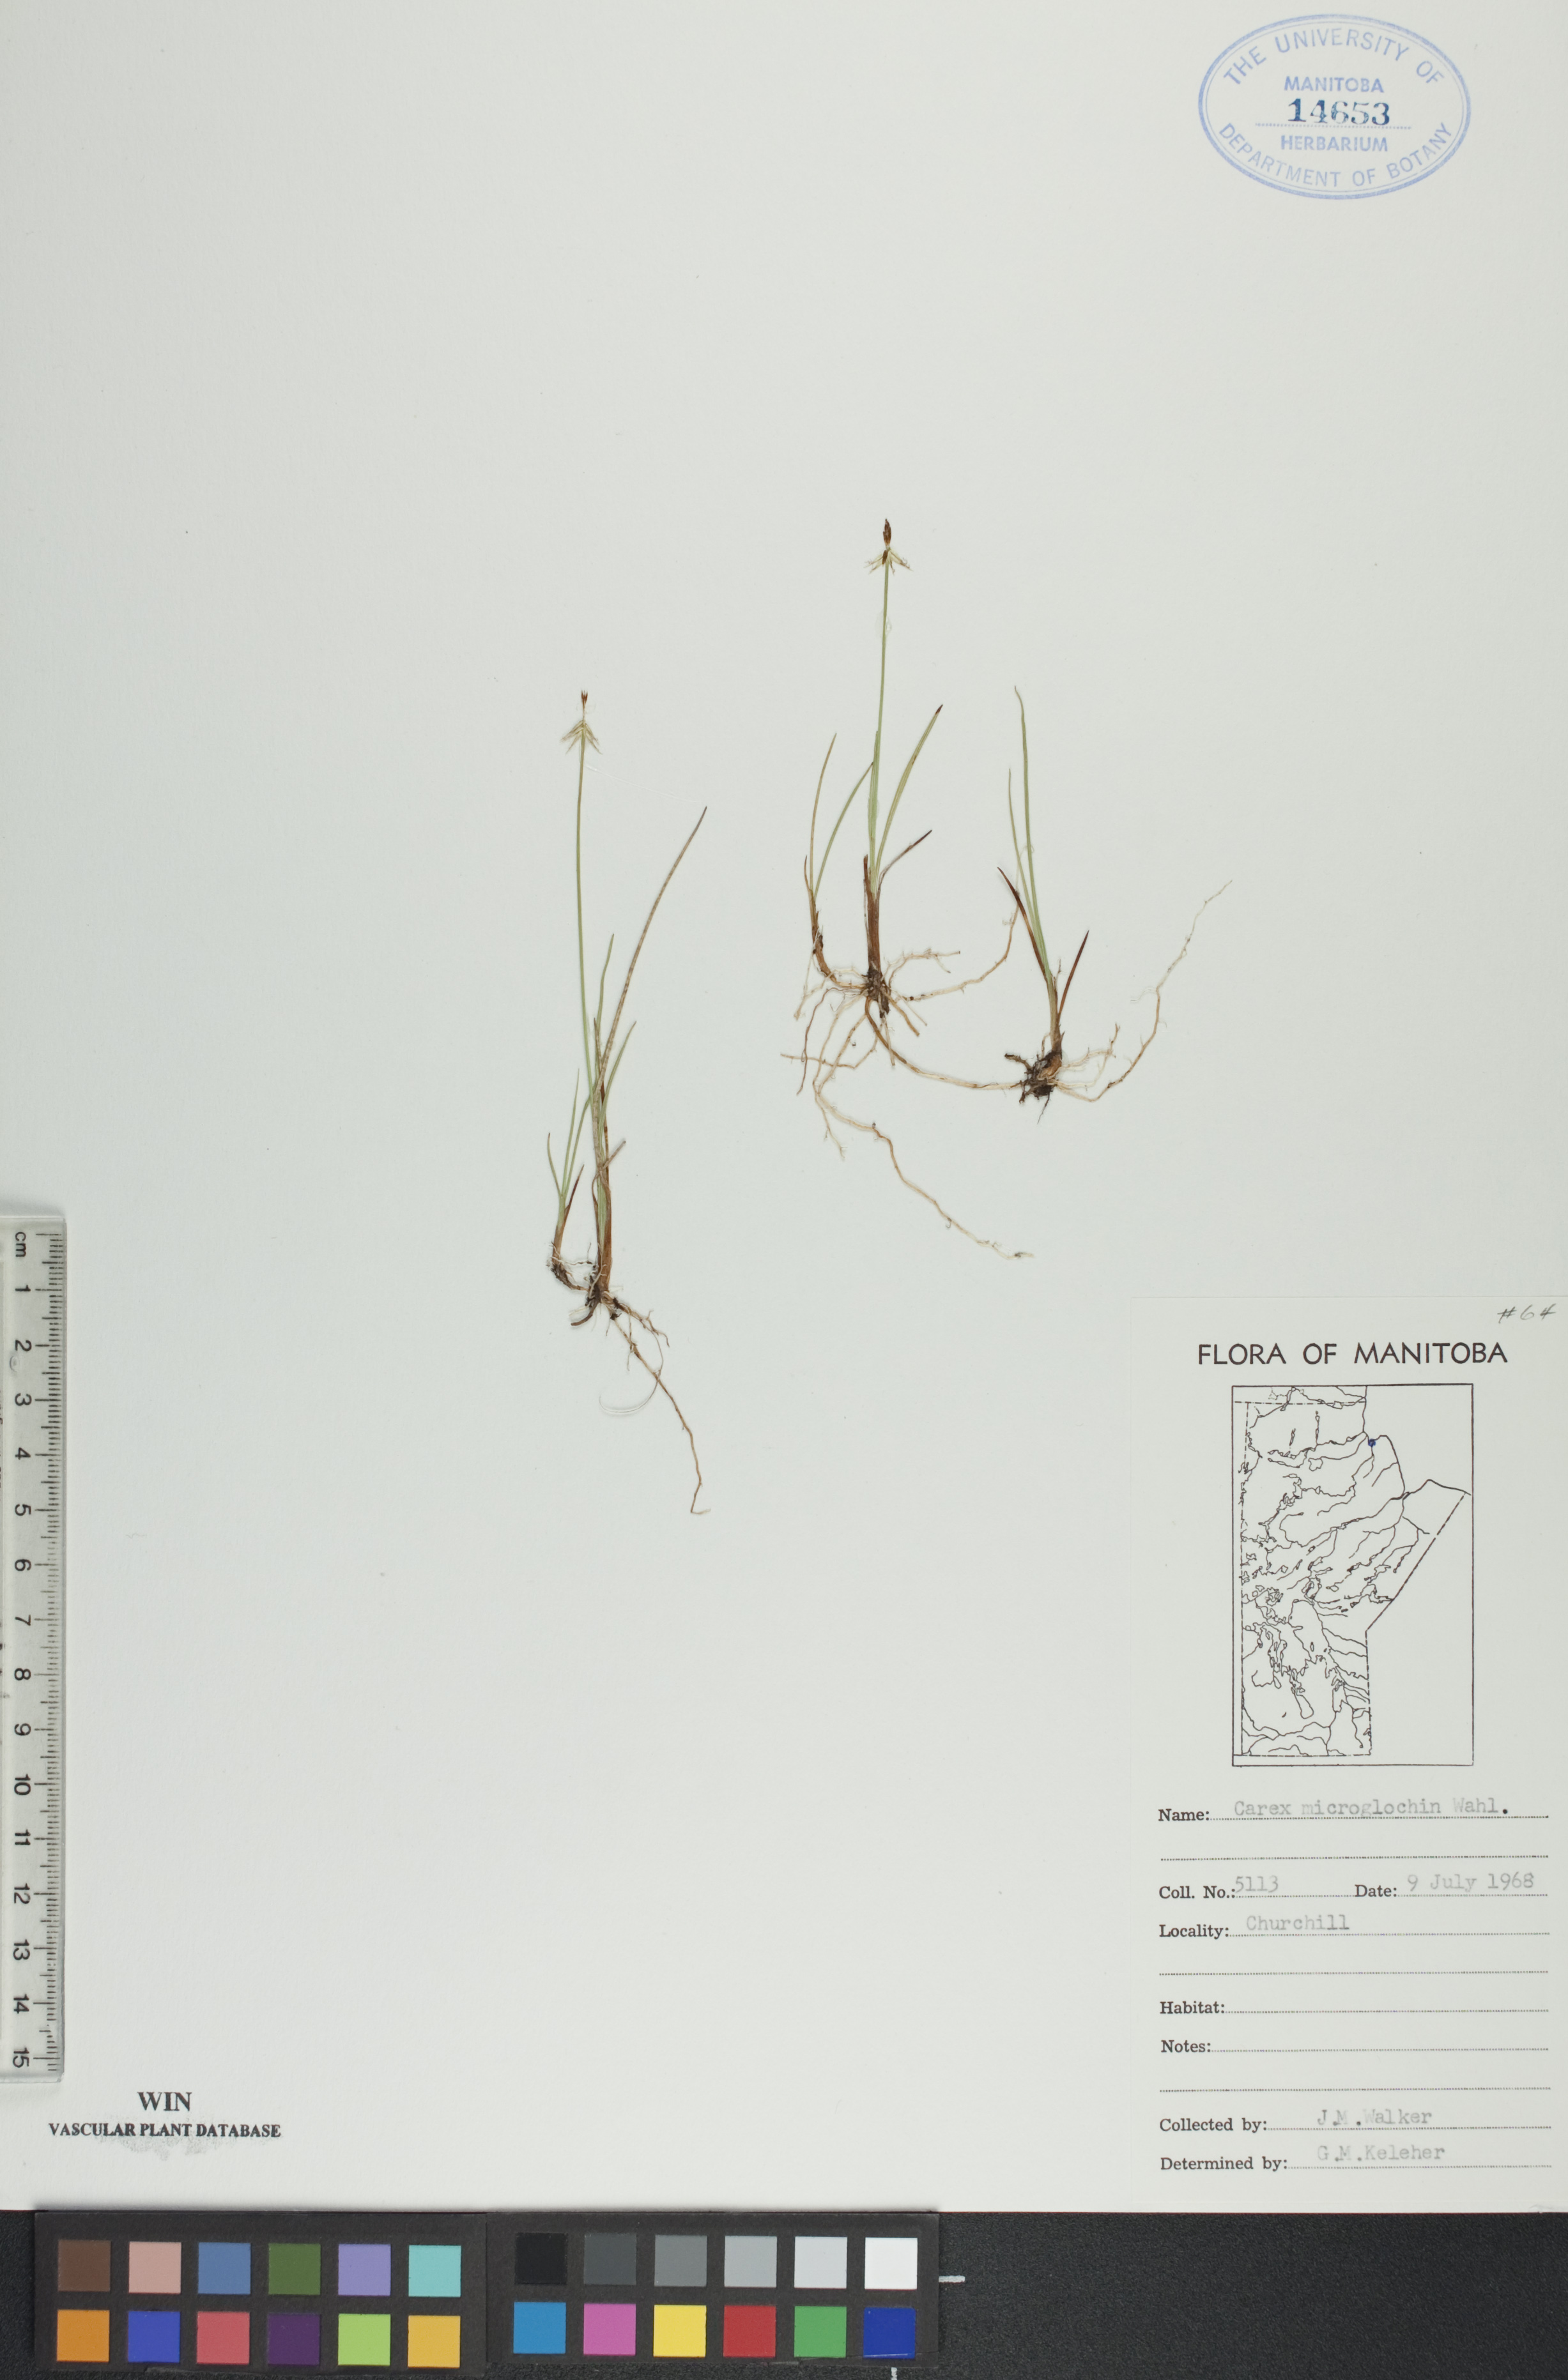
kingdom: Plantae
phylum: Tracheophyta
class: Liliopsida
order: Poales
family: Cyperaceae
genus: Carex
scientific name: Carex microglochin
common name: Bristle sedge
